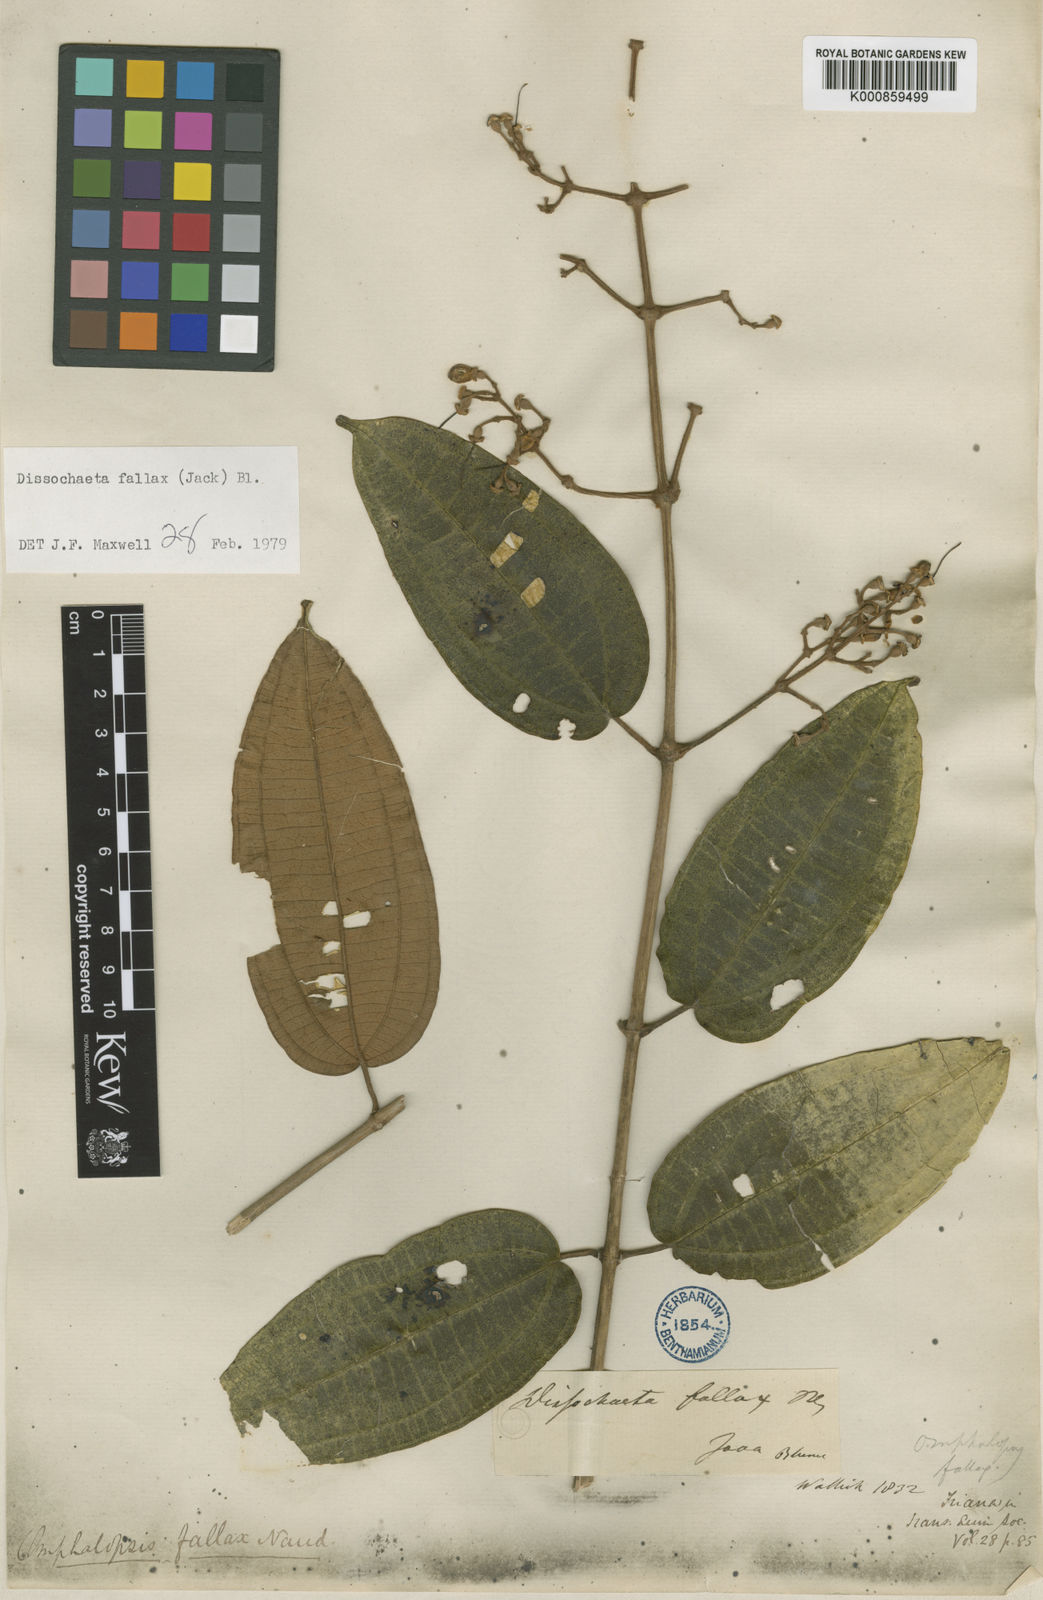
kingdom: Plantae
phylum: Tracheophyta
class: Magnoliopsida
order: Myrtales
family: Melastomataceae
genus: Dissochaeta
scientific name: Dissochaeta fallax
